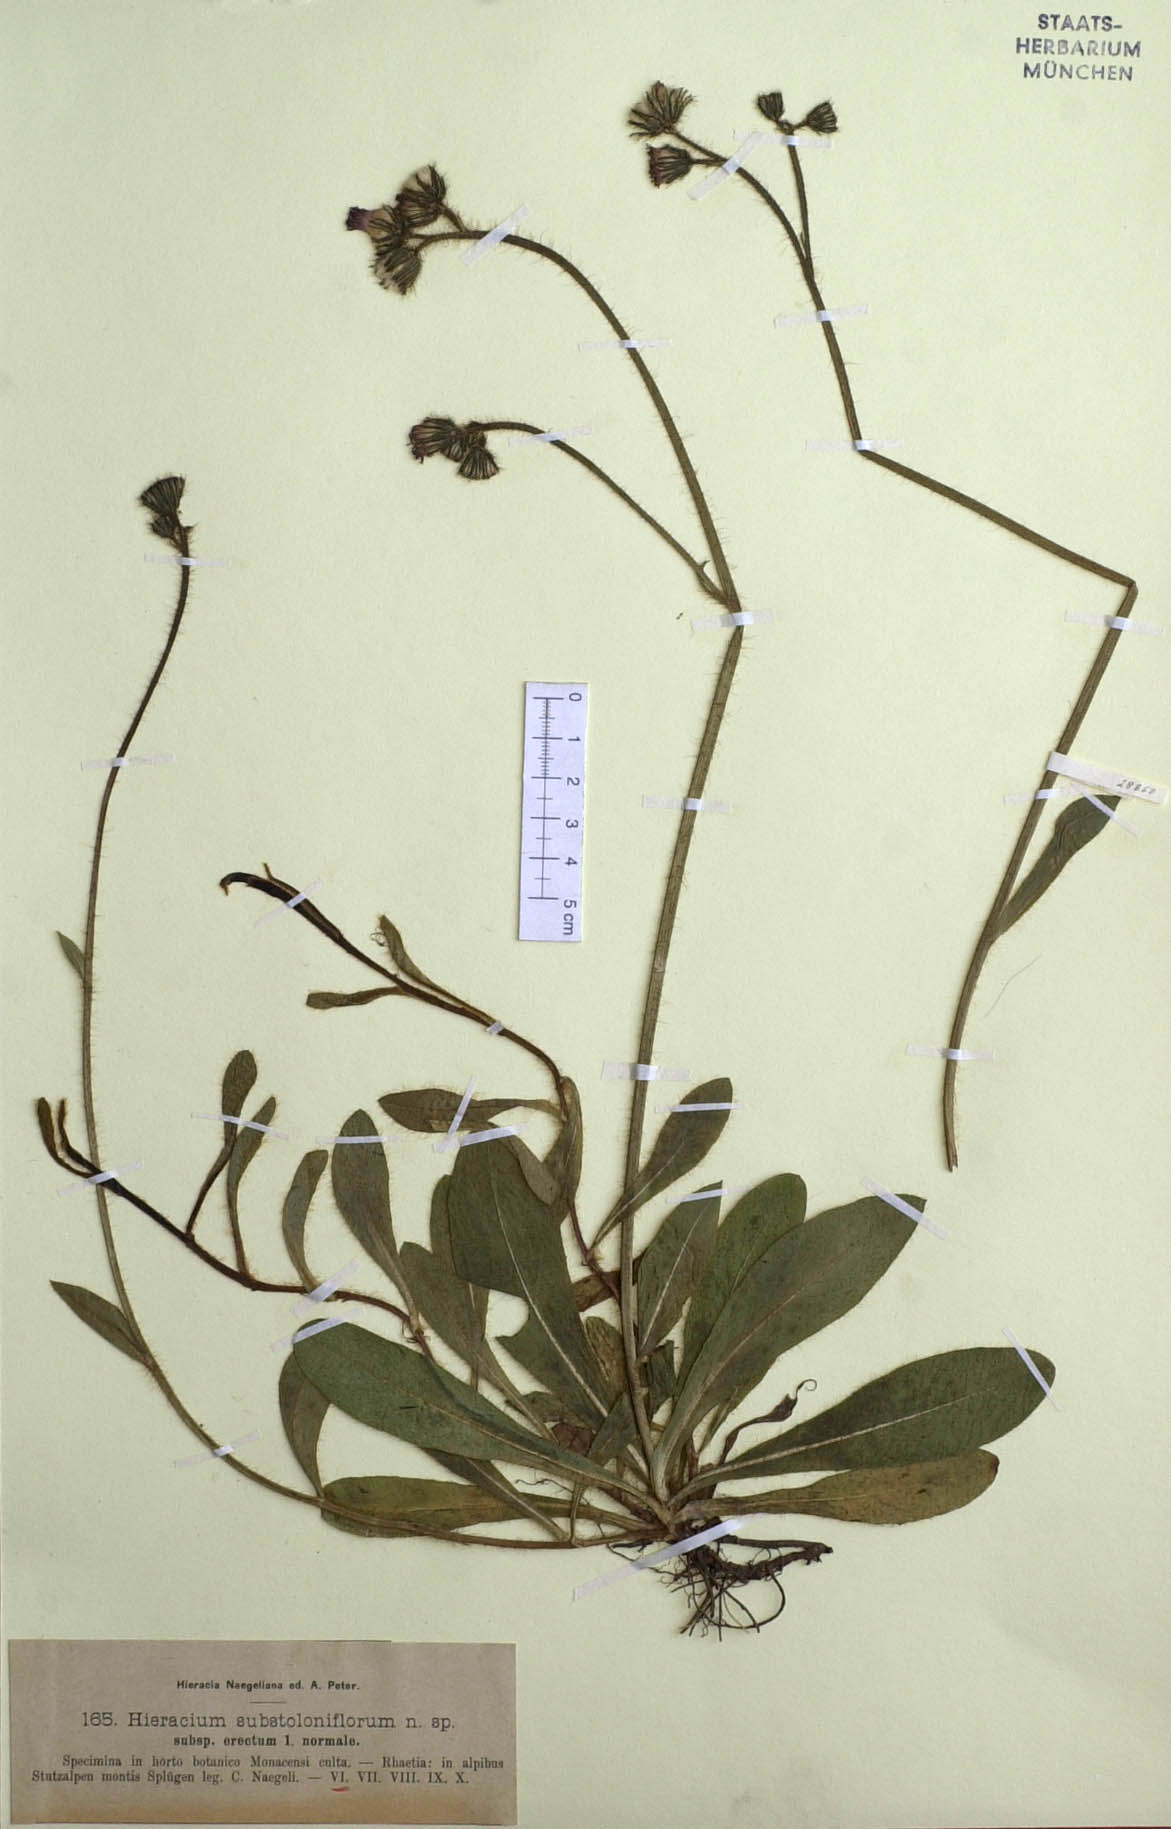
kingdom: Plantae
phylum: Tracheophyta
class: Magnoliopsida
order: Asterales
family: Asteraceae
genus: Pilosella
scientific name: Pilosella rubra
